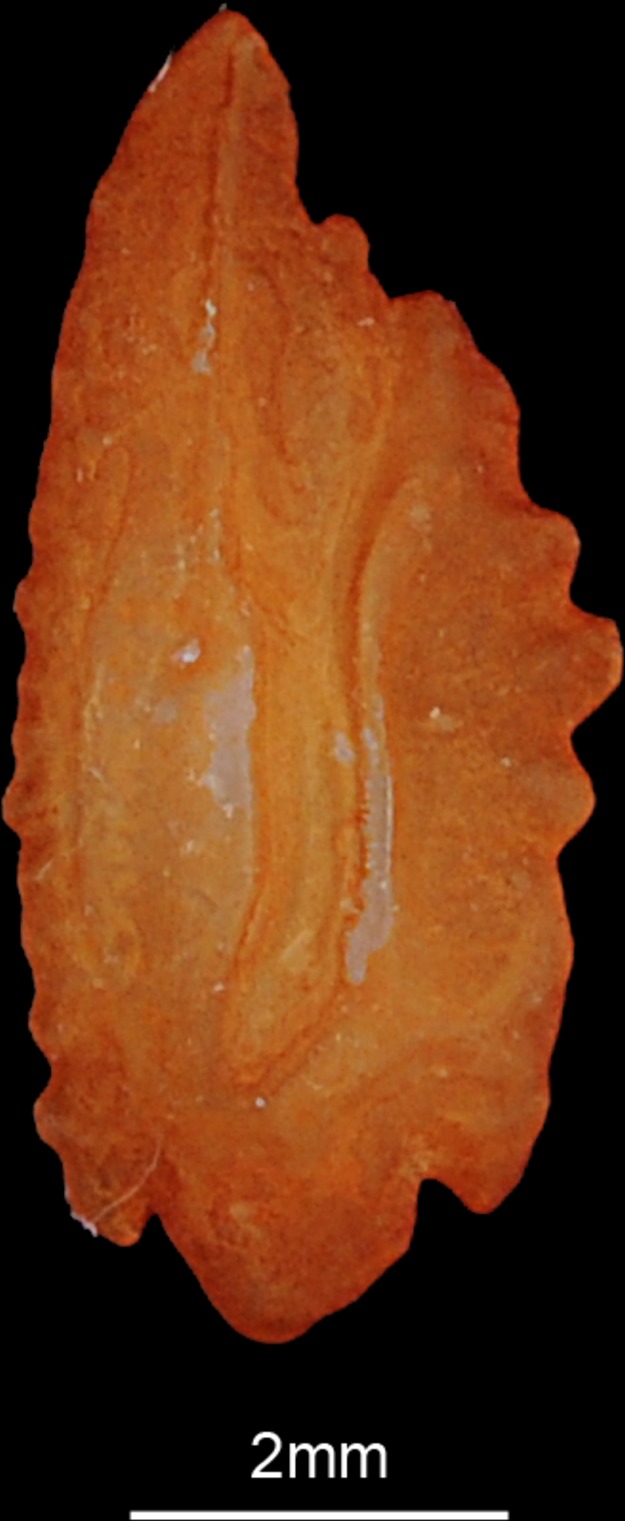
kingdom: Animalia
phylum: Chordata
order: Perciformes
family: Percidae
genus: Perca
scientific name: Perca fluviatilis
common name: Perch
